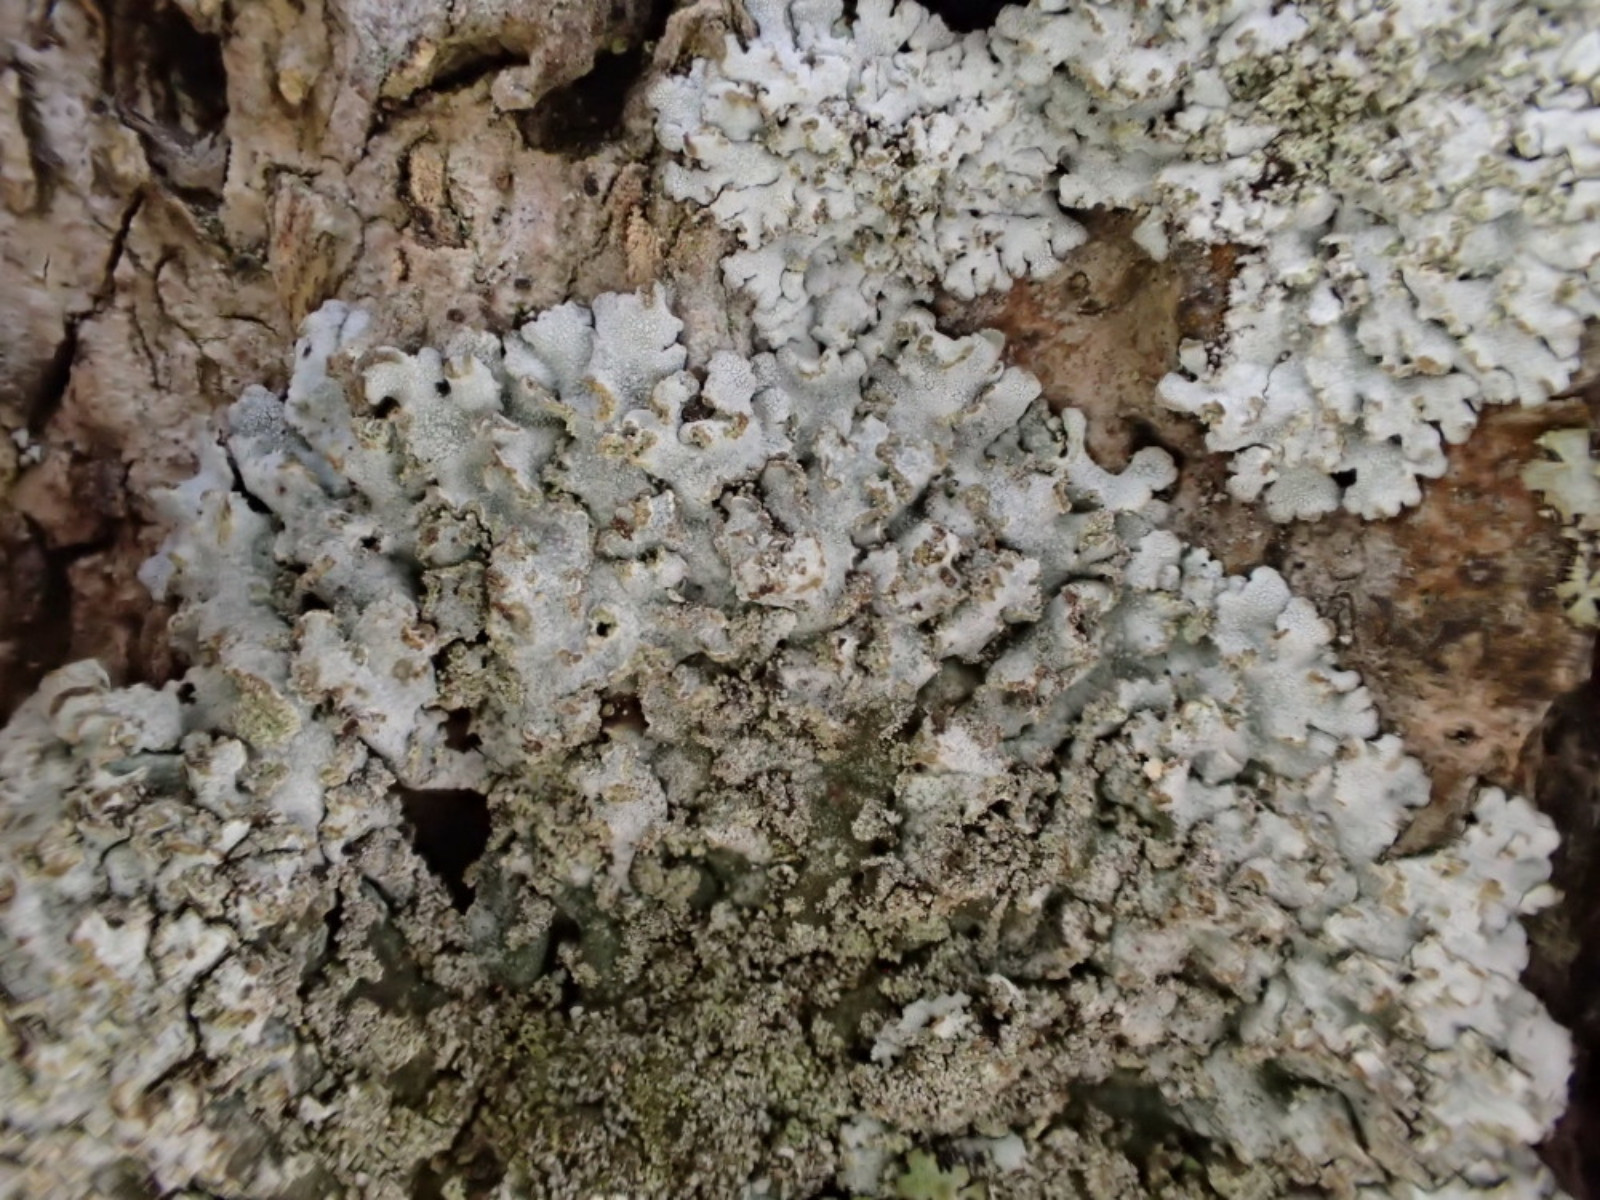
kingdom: Fungi
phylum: Ascomycota
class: Lecanoromycetes
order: Caliciales
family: Physciaceae
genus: Physconia
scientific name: Physconia perisidiosa
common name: liden dugrosetlav
